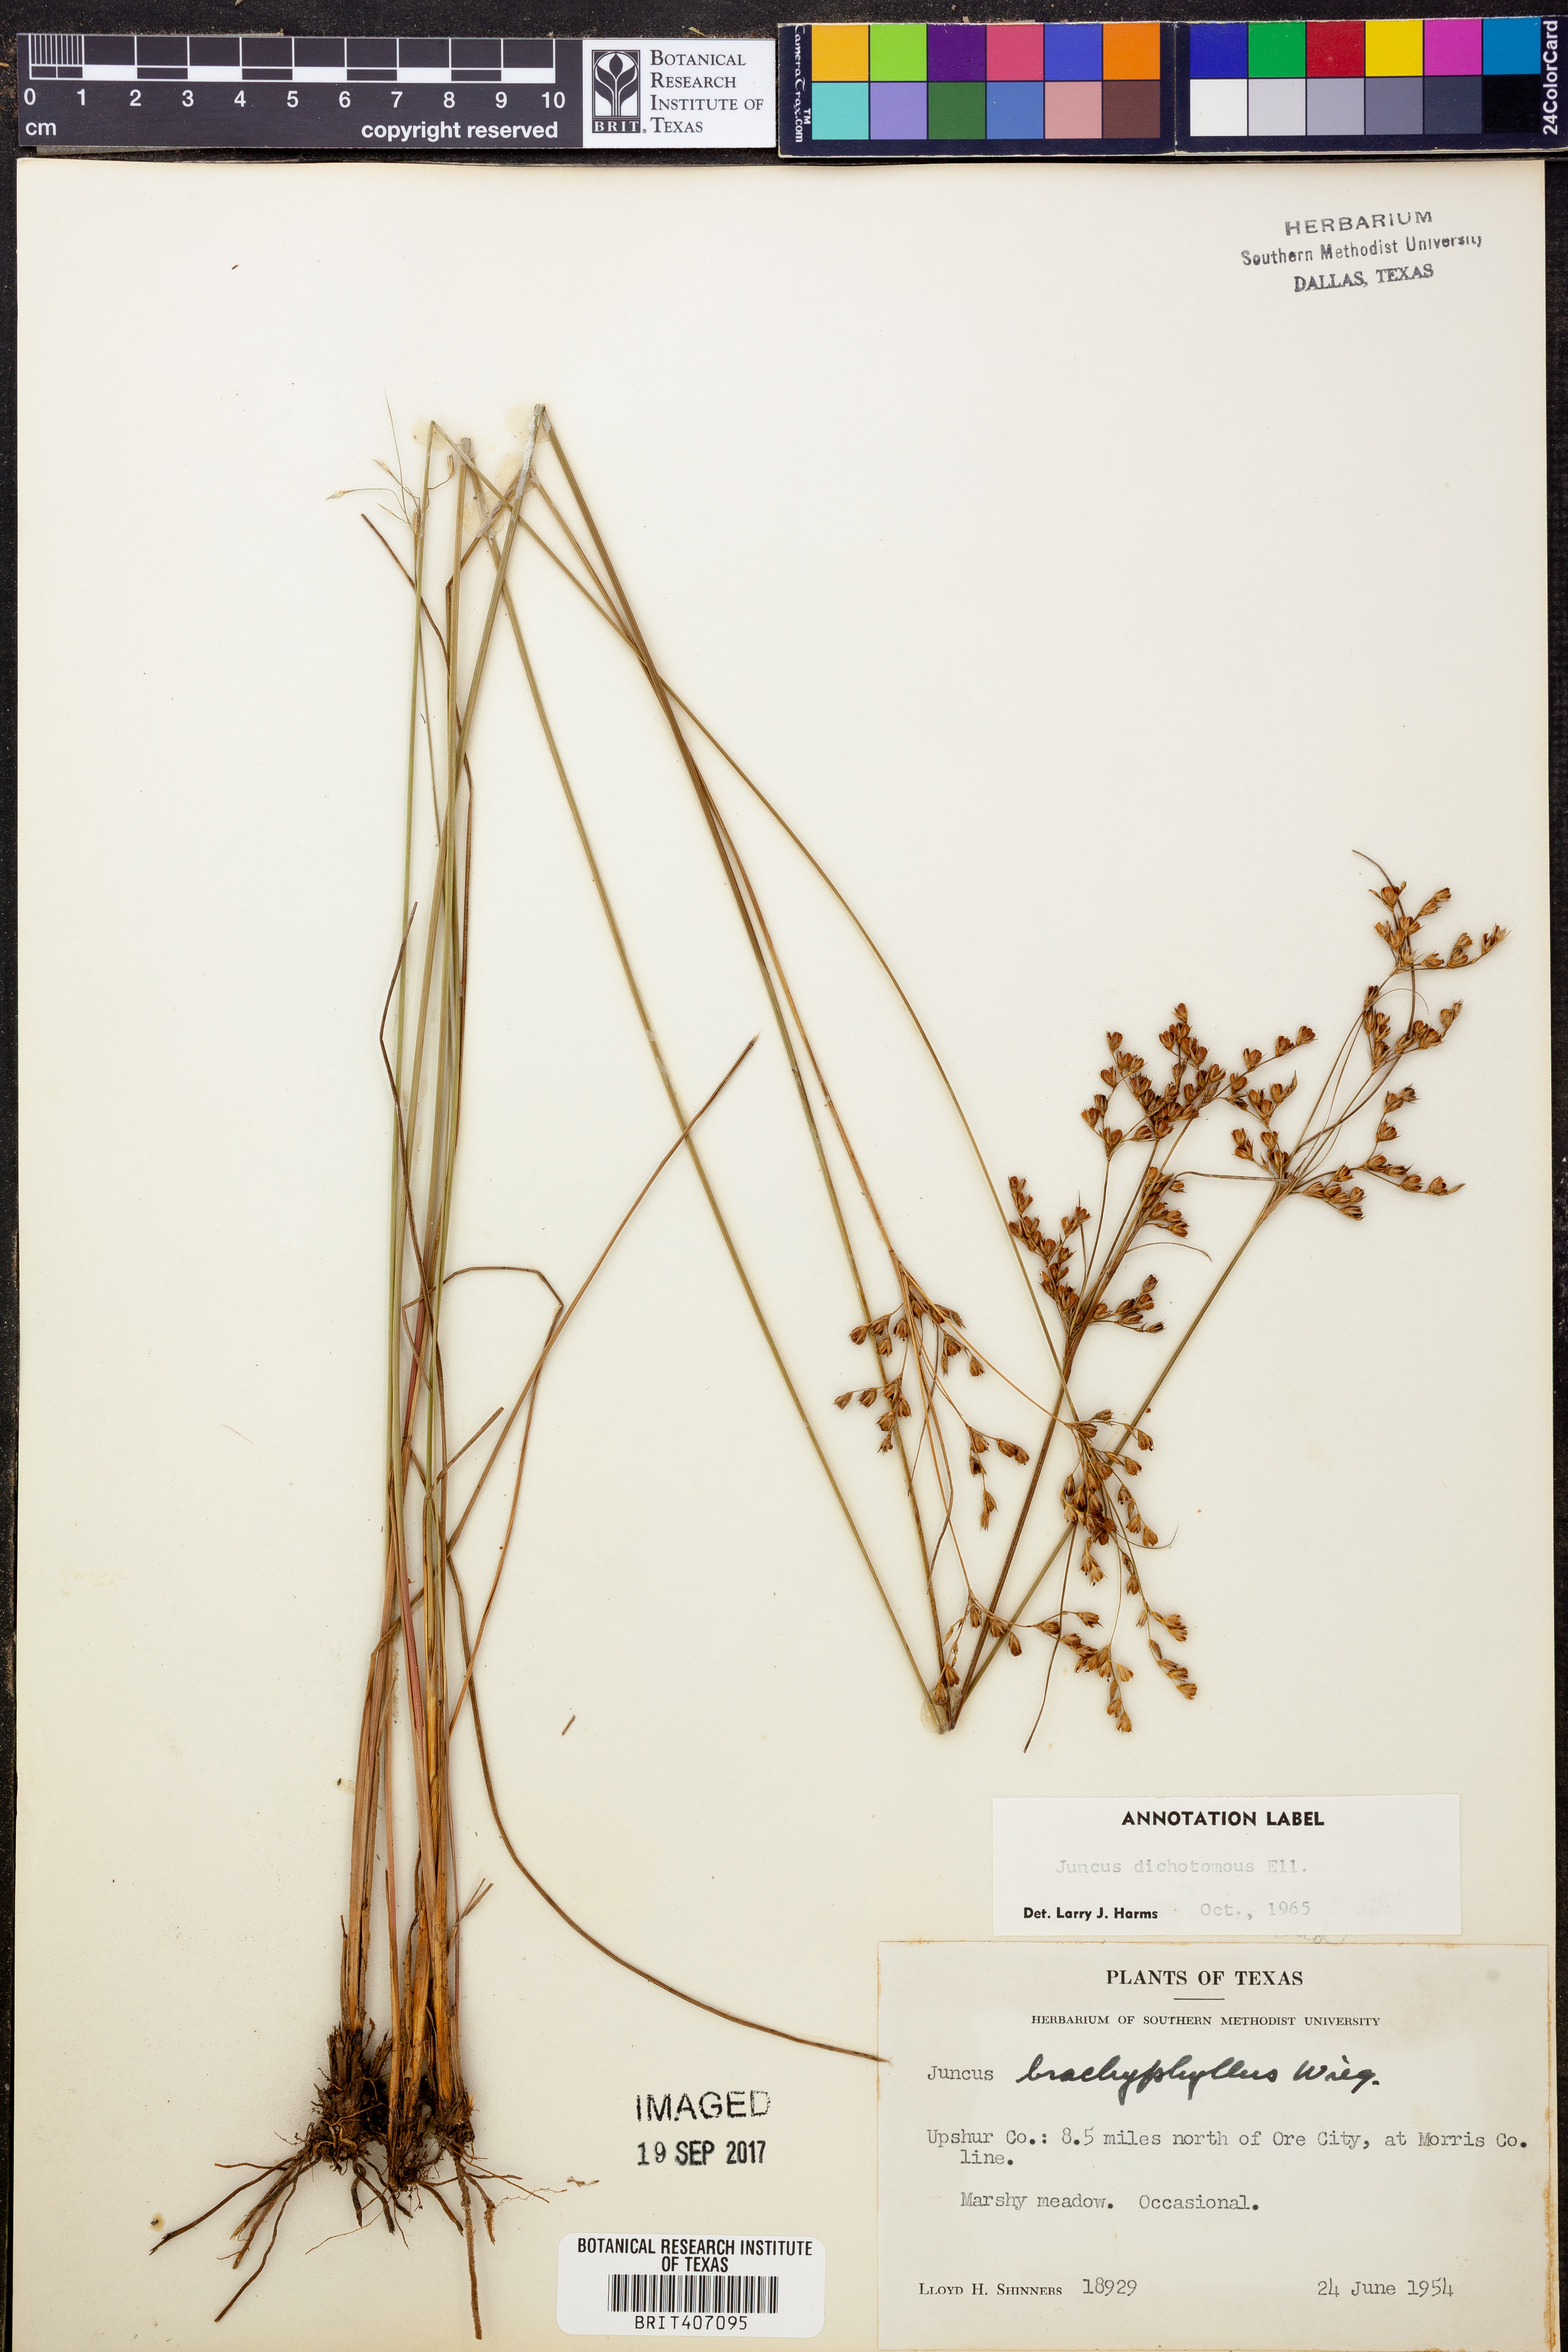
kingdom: Plantae
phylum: Tracheophyta
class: Liliopsida
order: Poales
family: Juncaceae
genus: Juncus
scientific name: Juncus dichotomus
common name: Forked rush
